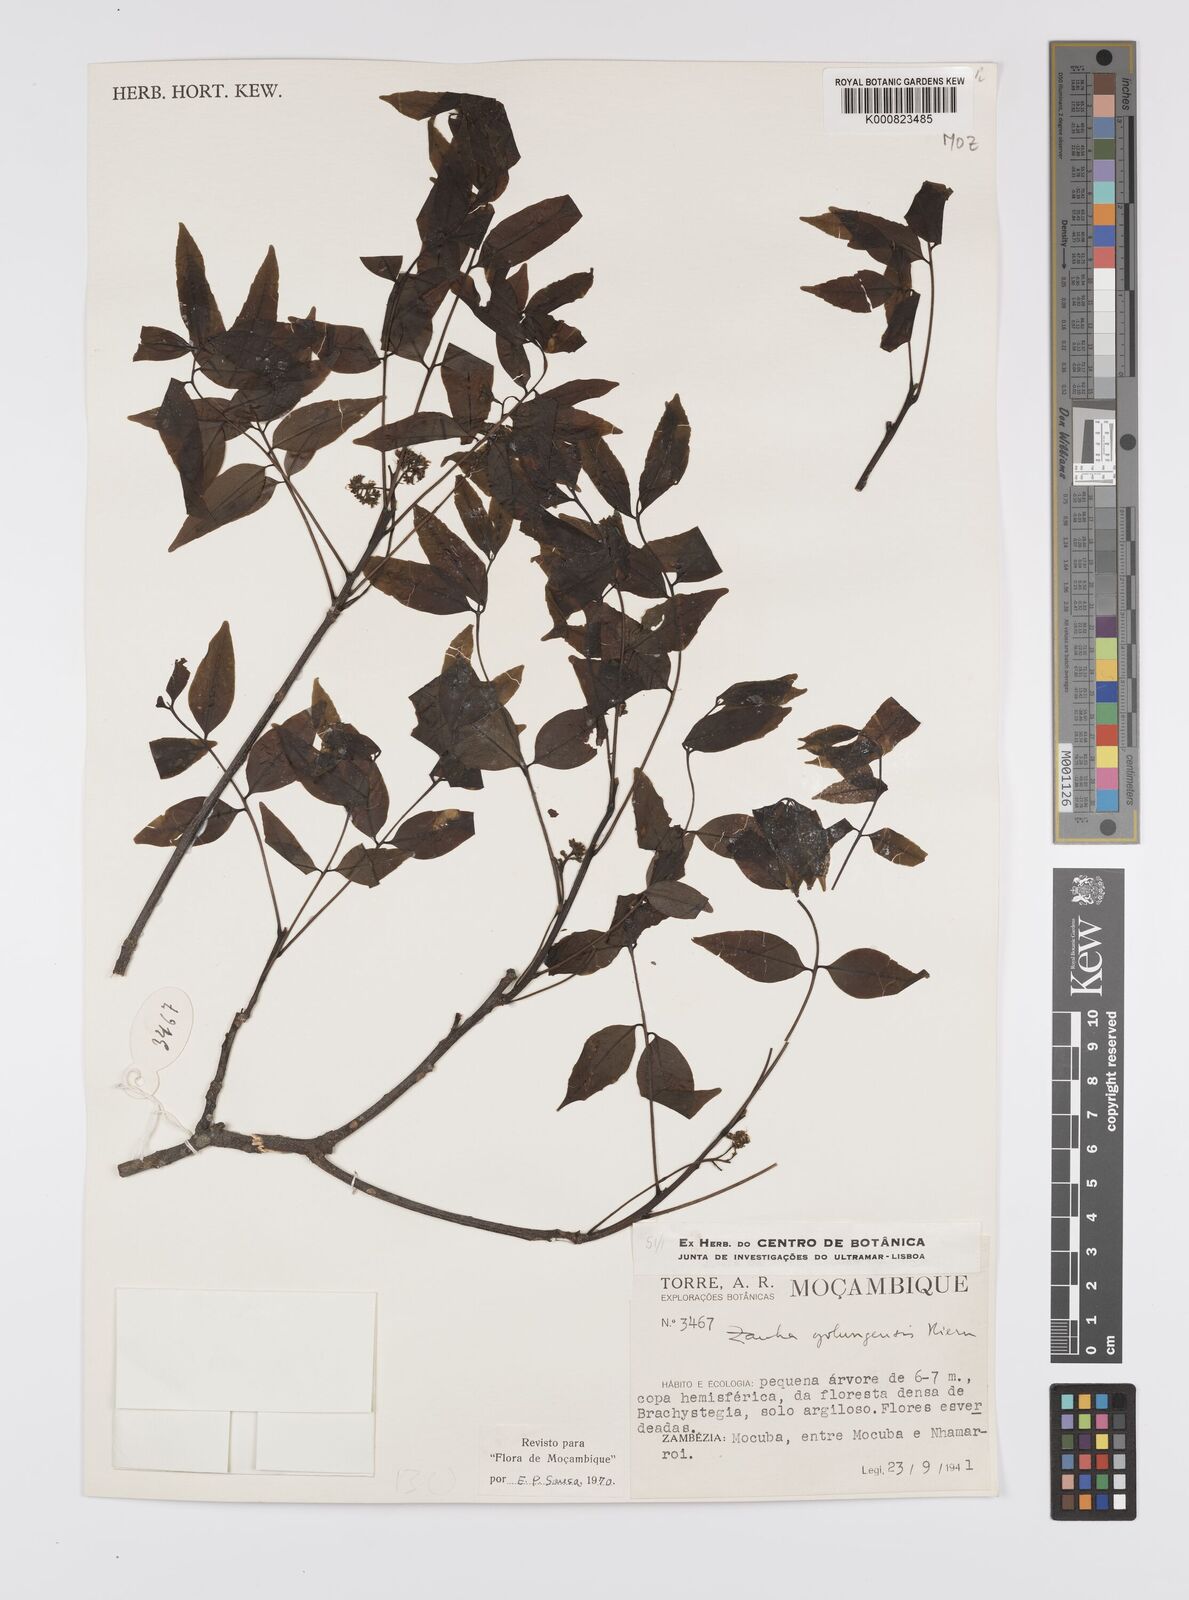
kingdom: Plantae
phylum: Tracheophyta
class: Magnoliopsida
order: Sapindales
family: Sapindaceae
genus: Zanha
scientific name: Zanha golungensis
